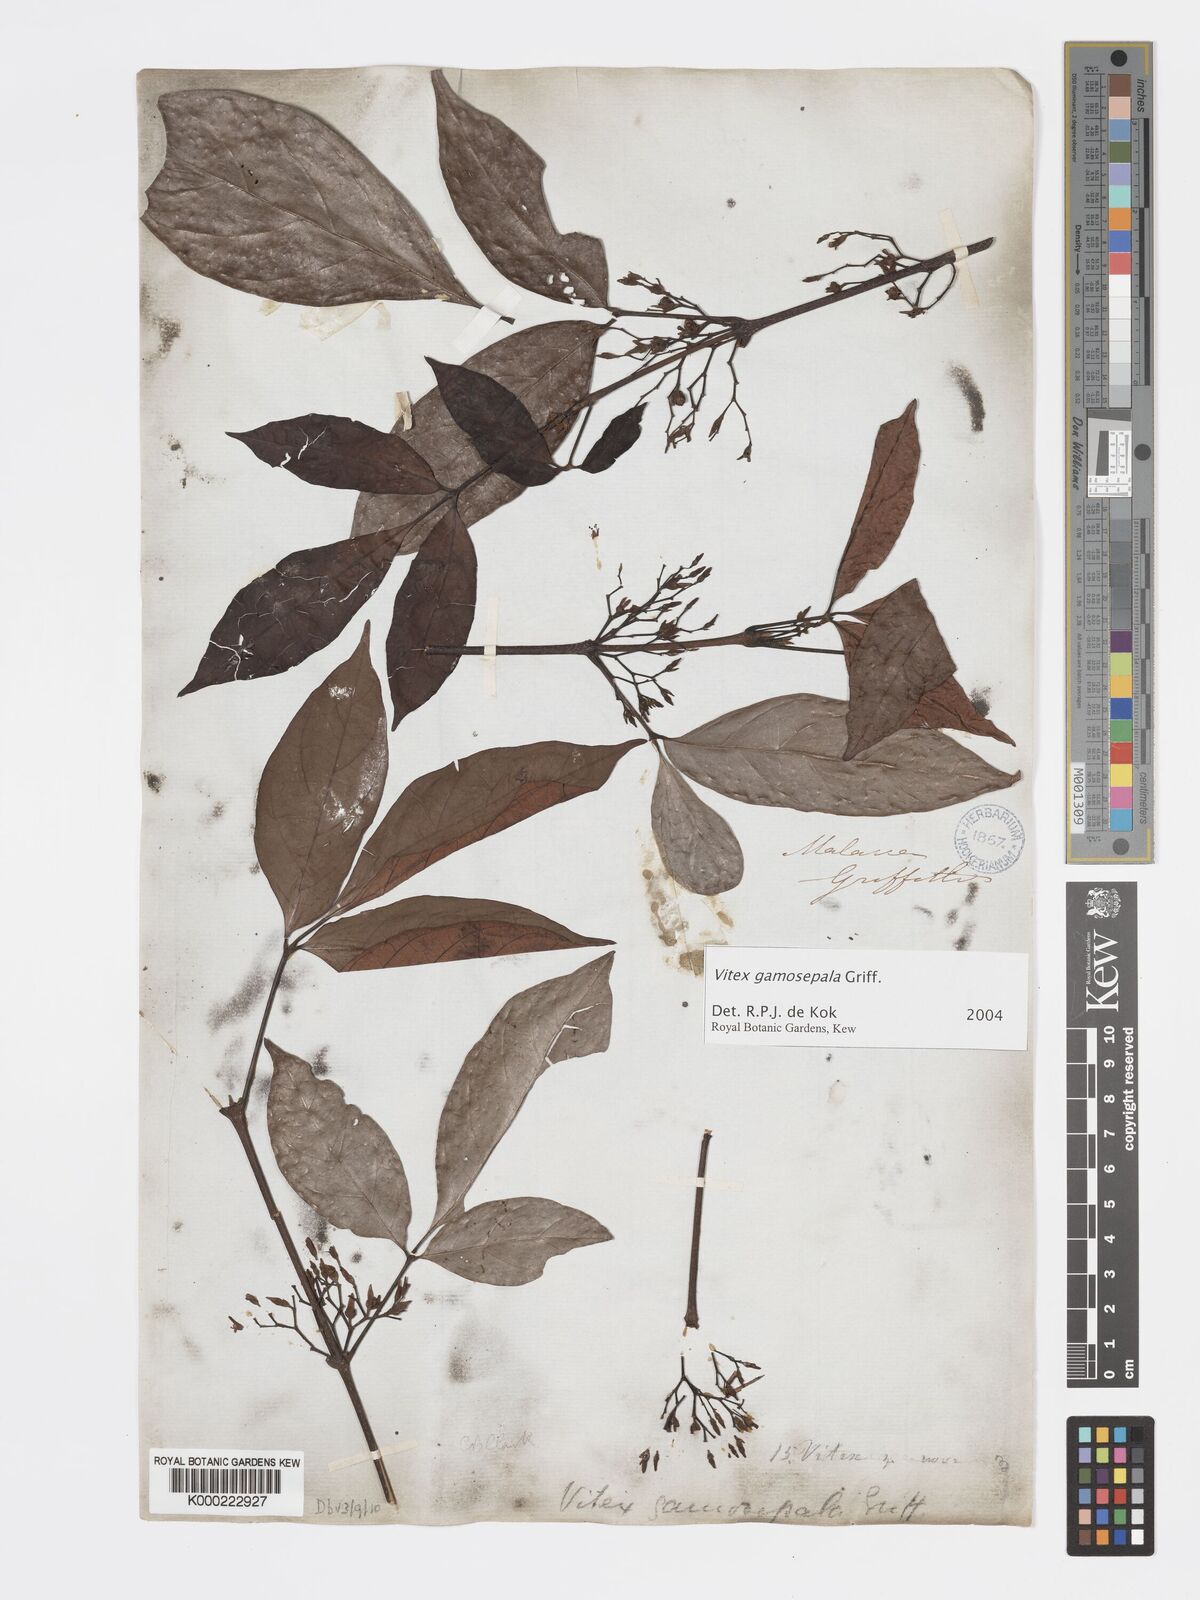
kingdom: Plantae
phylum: Tracheophyta
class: Magnoliopsida
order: Lamiales
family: Lamiaceae
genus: Vitex
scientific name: Vitex gamosepala
